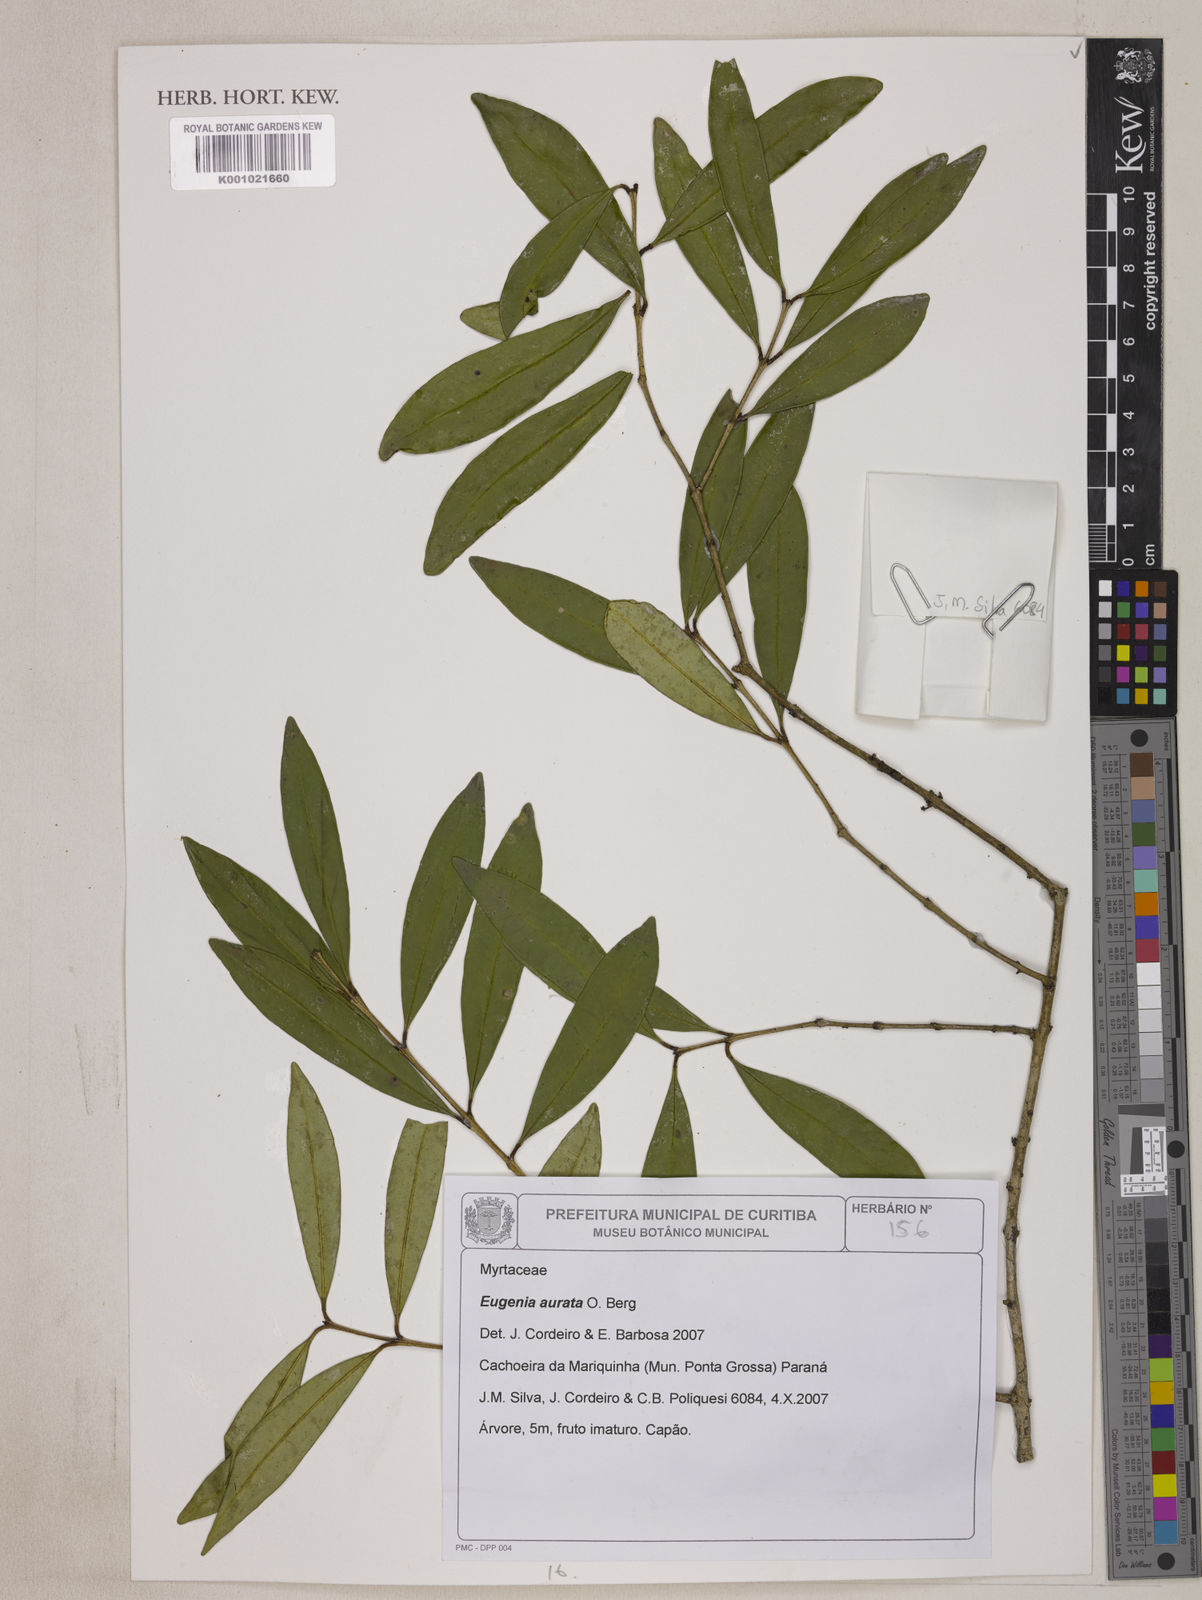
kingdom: Plantae
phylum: Tracheophyta
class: Magnoliopsida
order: Myrtales
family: Myrtaceae
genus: Eugenia
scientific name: Eugenia aurata
